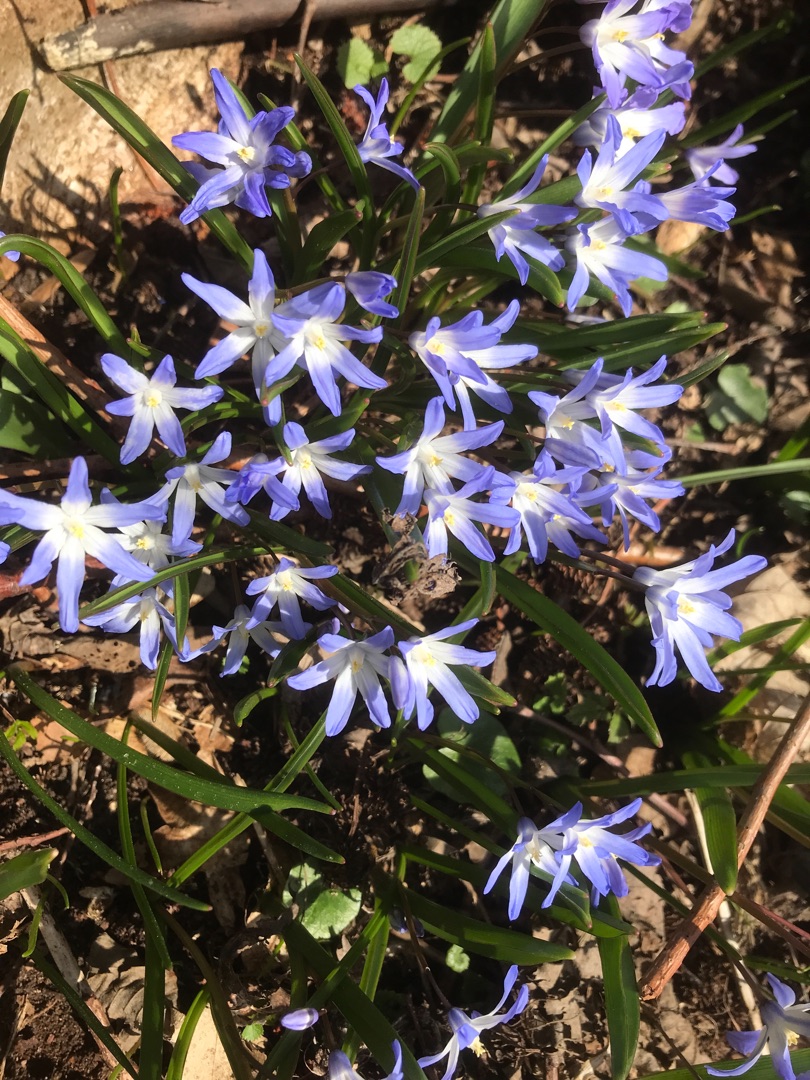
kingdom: Plantae
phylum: Tracheophyta
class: Liliopsida
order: Asparagales
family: Asparagaceae
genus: Scilla
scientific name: Scilla luciliae
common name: Stor snepryd
